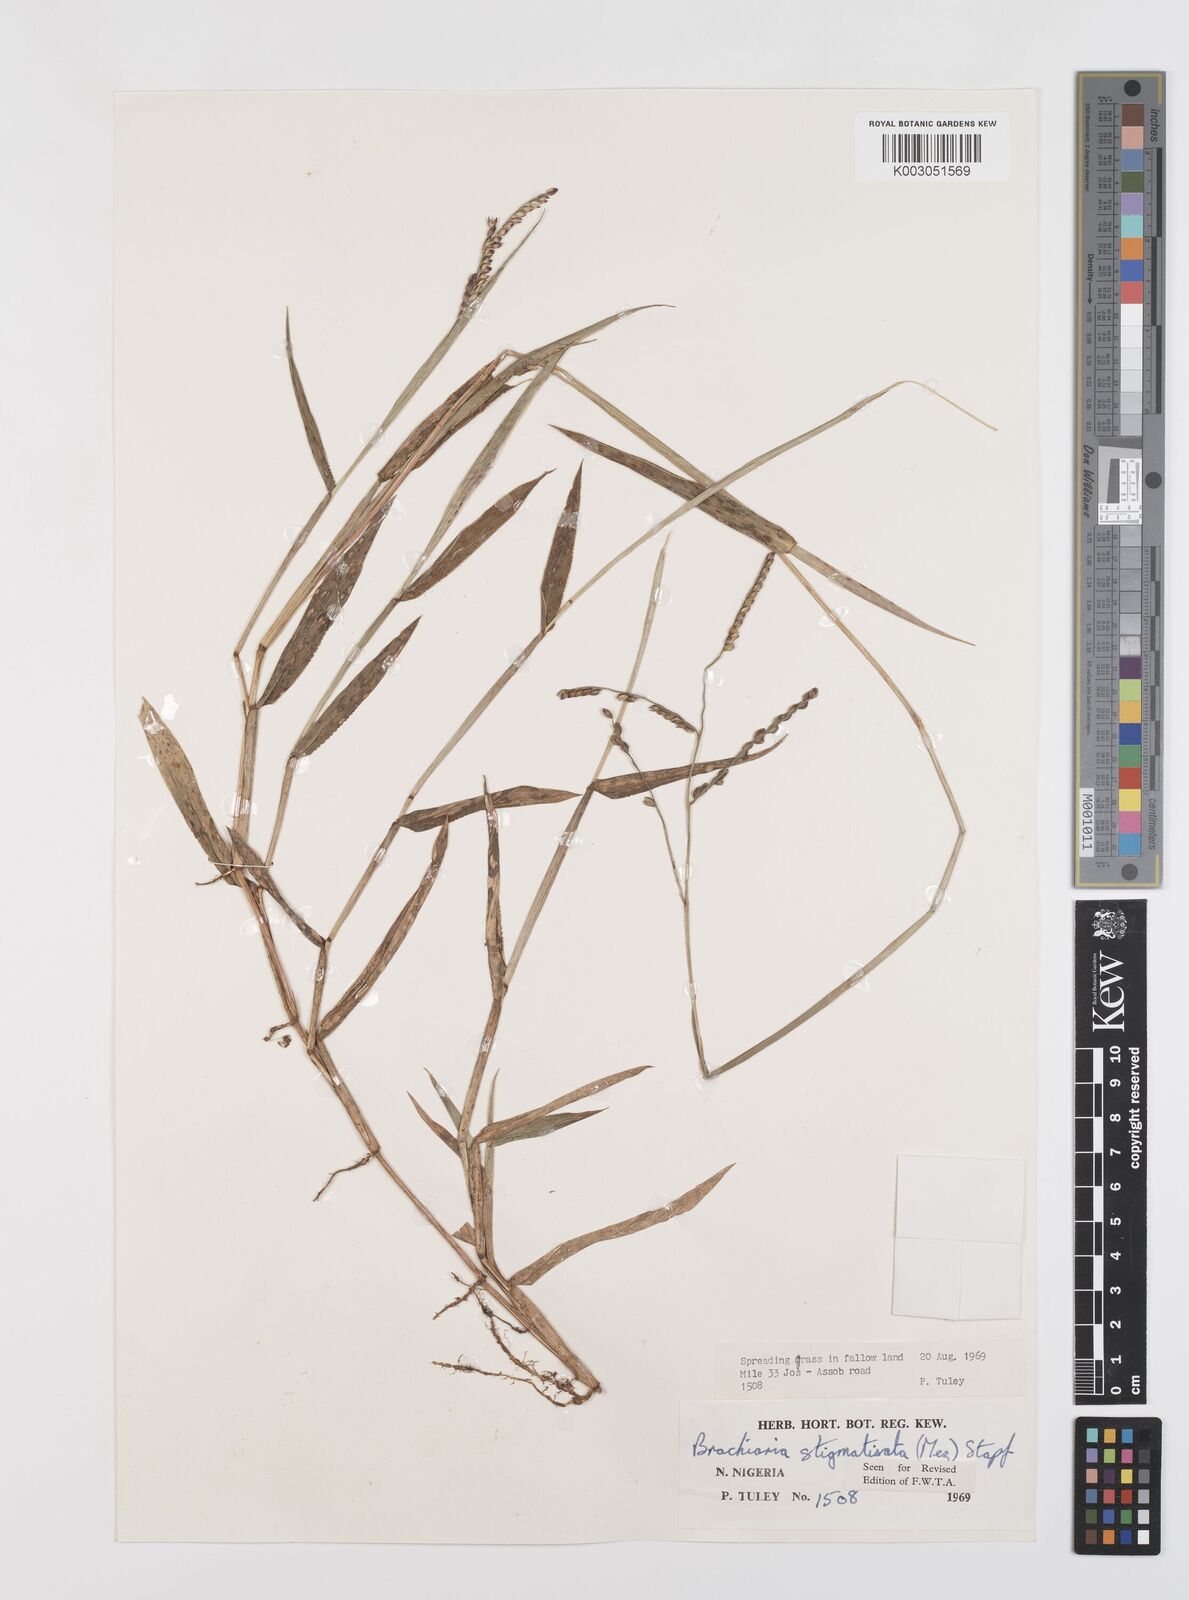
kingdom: Plantae
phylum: Tracheophyta
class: Liliopsida
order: Poales
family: Poaceae
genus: Urochloa
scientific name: Urochloa stigmatisata
